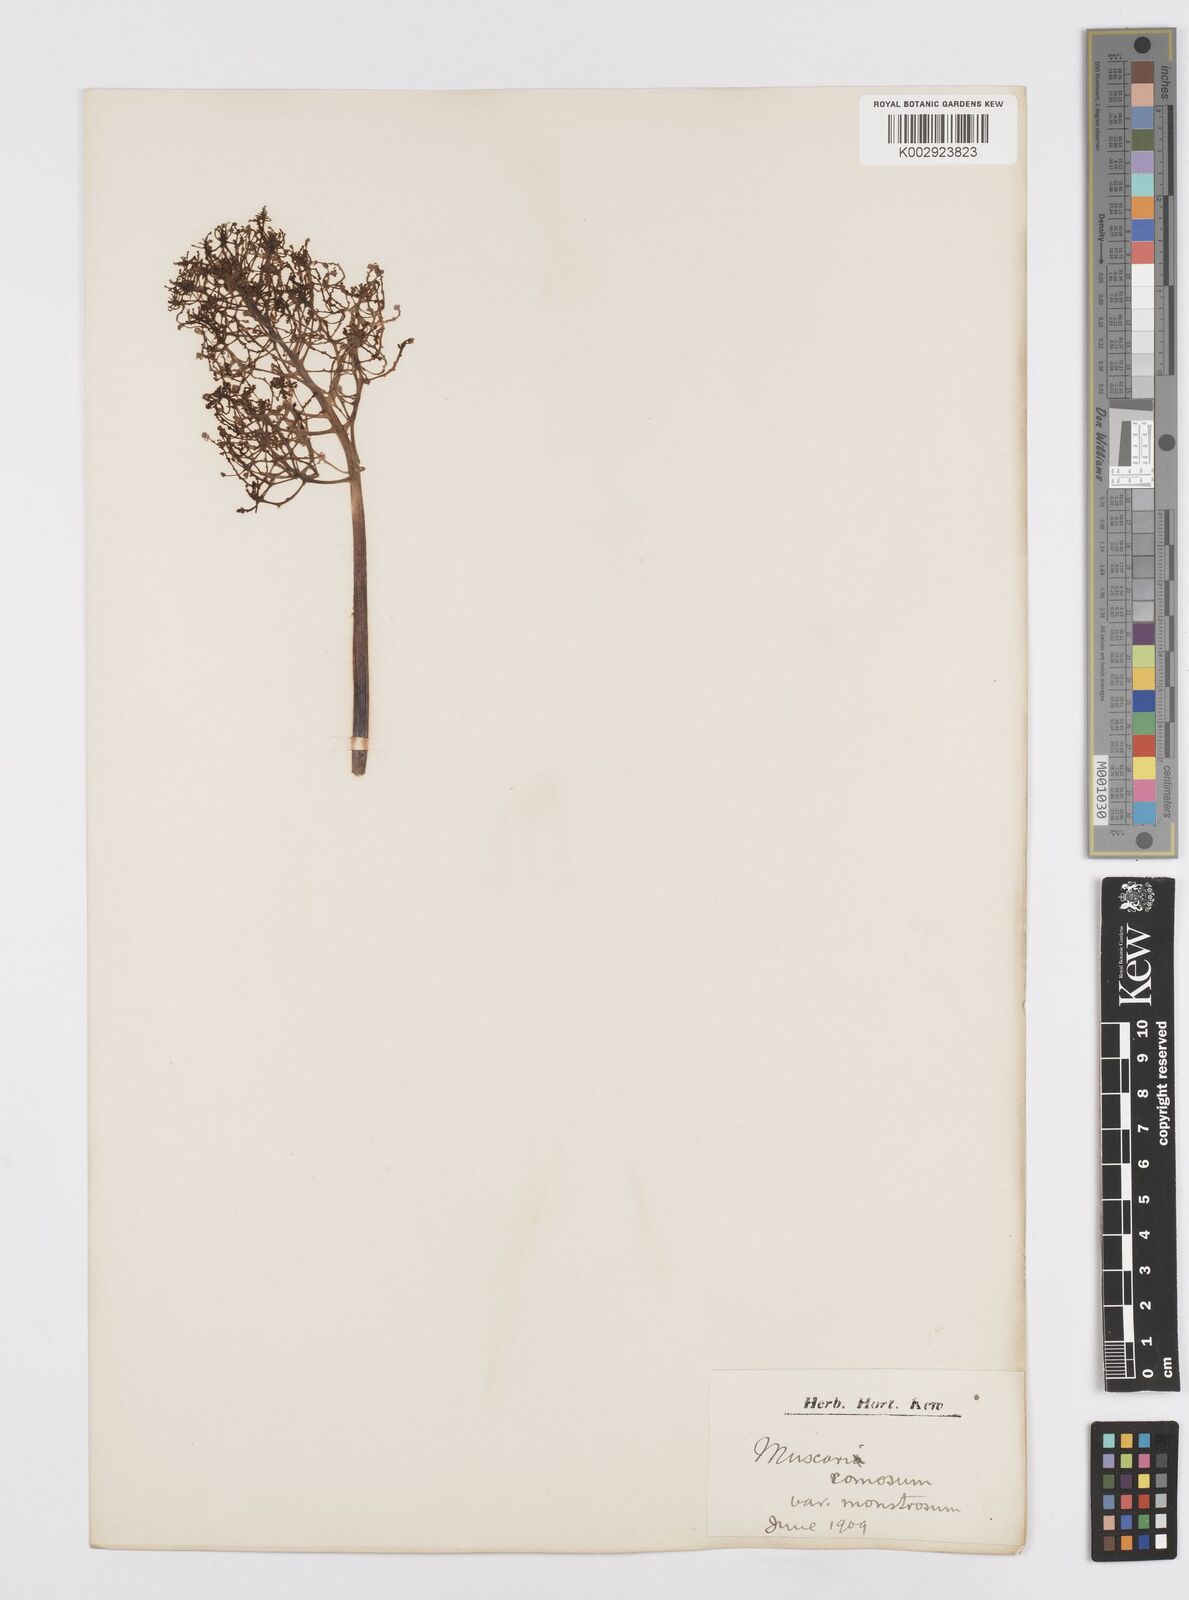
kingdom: Plantae
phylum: Tracheophyta
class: Liliopsida
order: Asparagales
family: Asparagaceae
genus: Muscari
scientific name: Muscari comosum
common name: Tassel hyacinth
